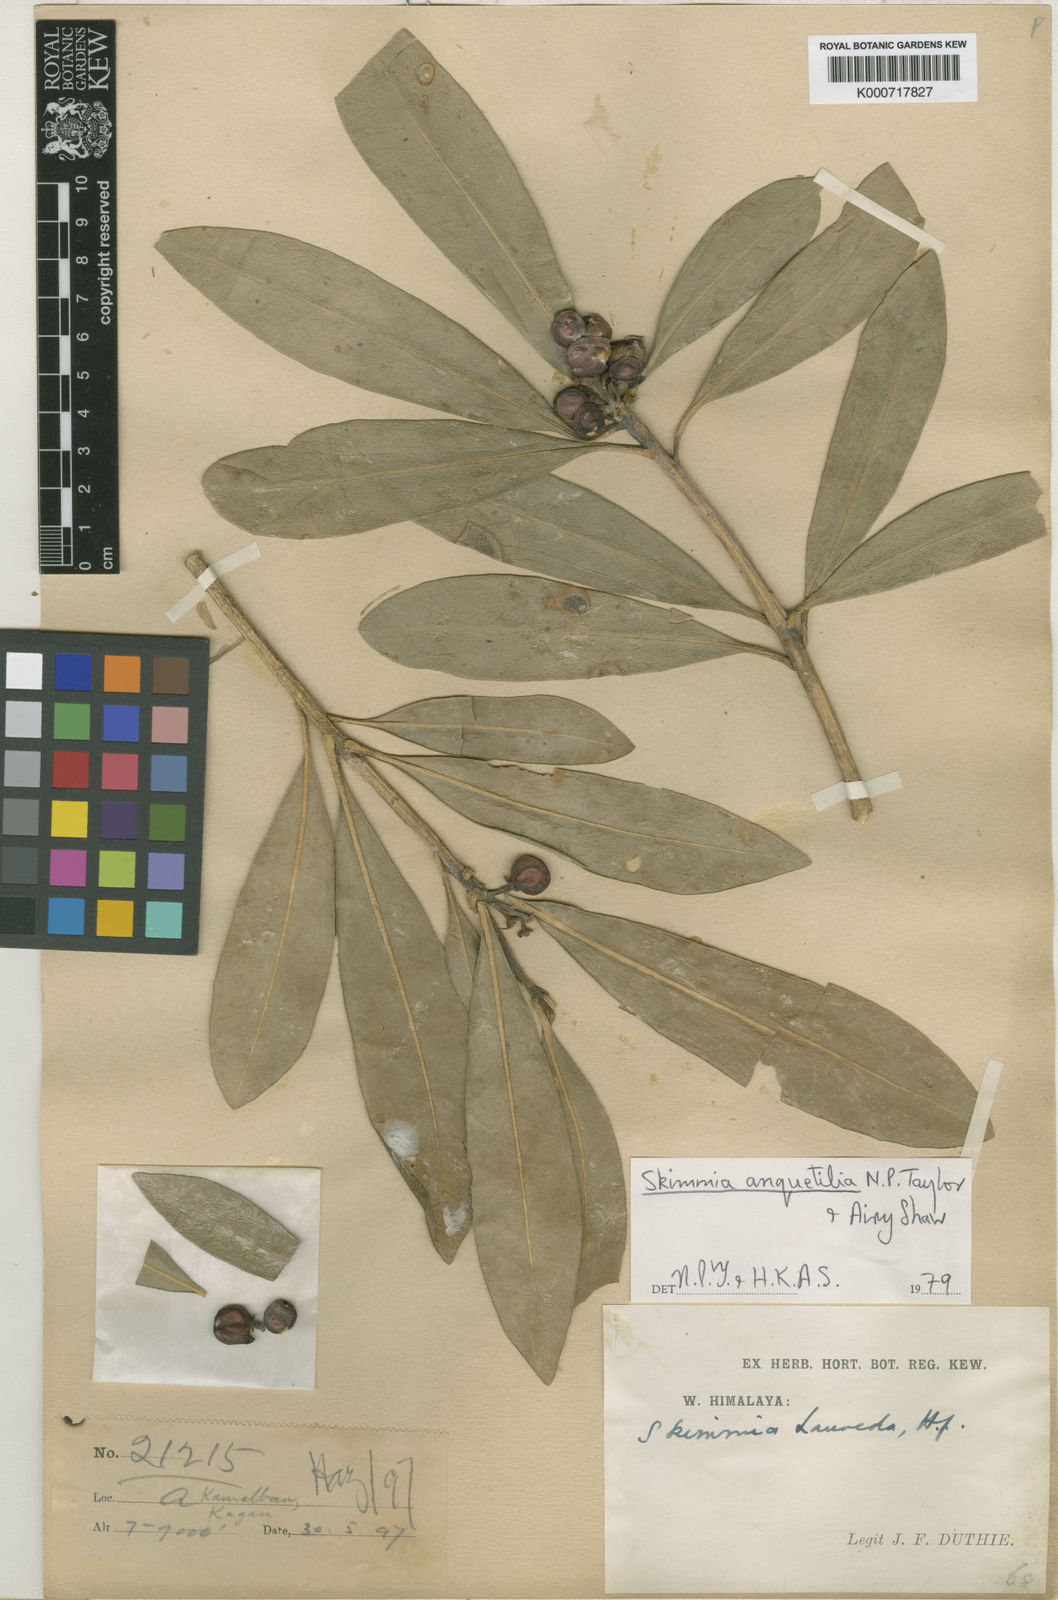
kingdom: Plantae
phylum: Tracheophyta
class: Magnoliopsida
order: Sapindales
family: Rutaceae
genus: Skimmia
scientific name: Skimmia anquetilia
